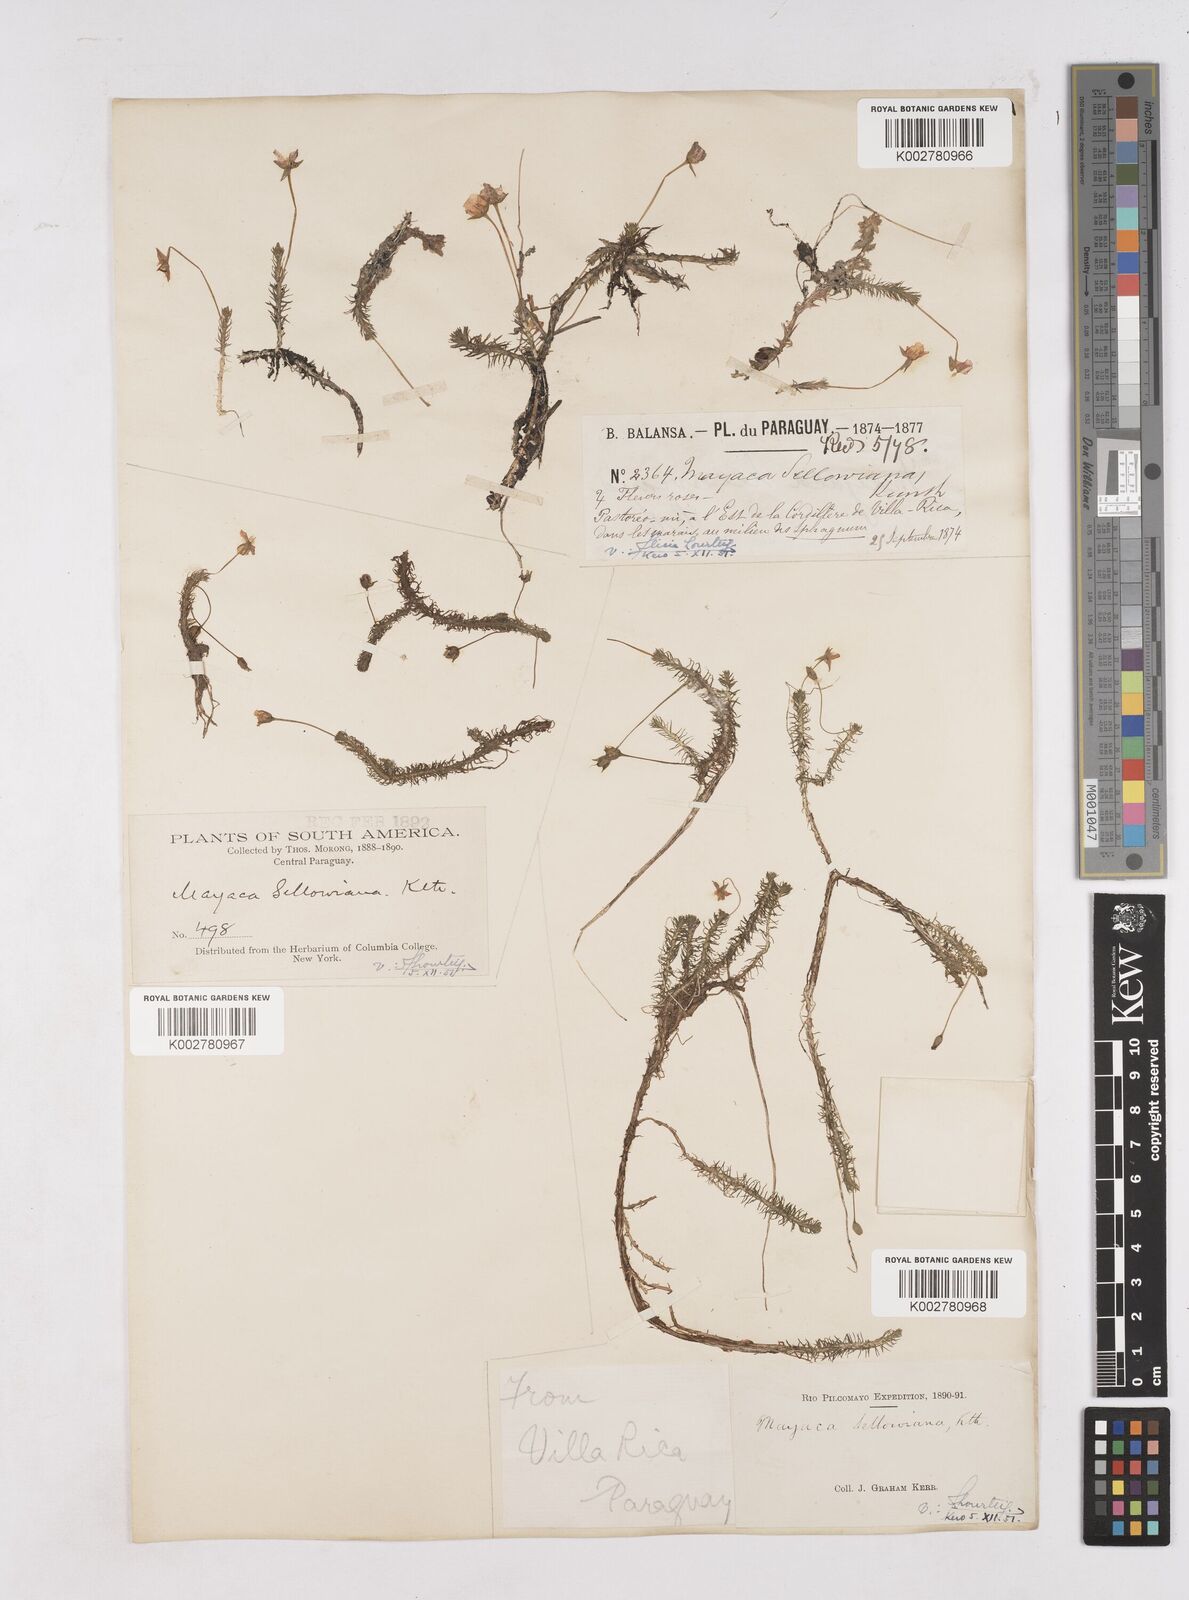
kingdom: Plantae
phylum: Tracheophyta
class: Liliopsida
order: Poales
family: Mayacaceae
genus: Mayaca
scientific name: Mayaca sellowiana
